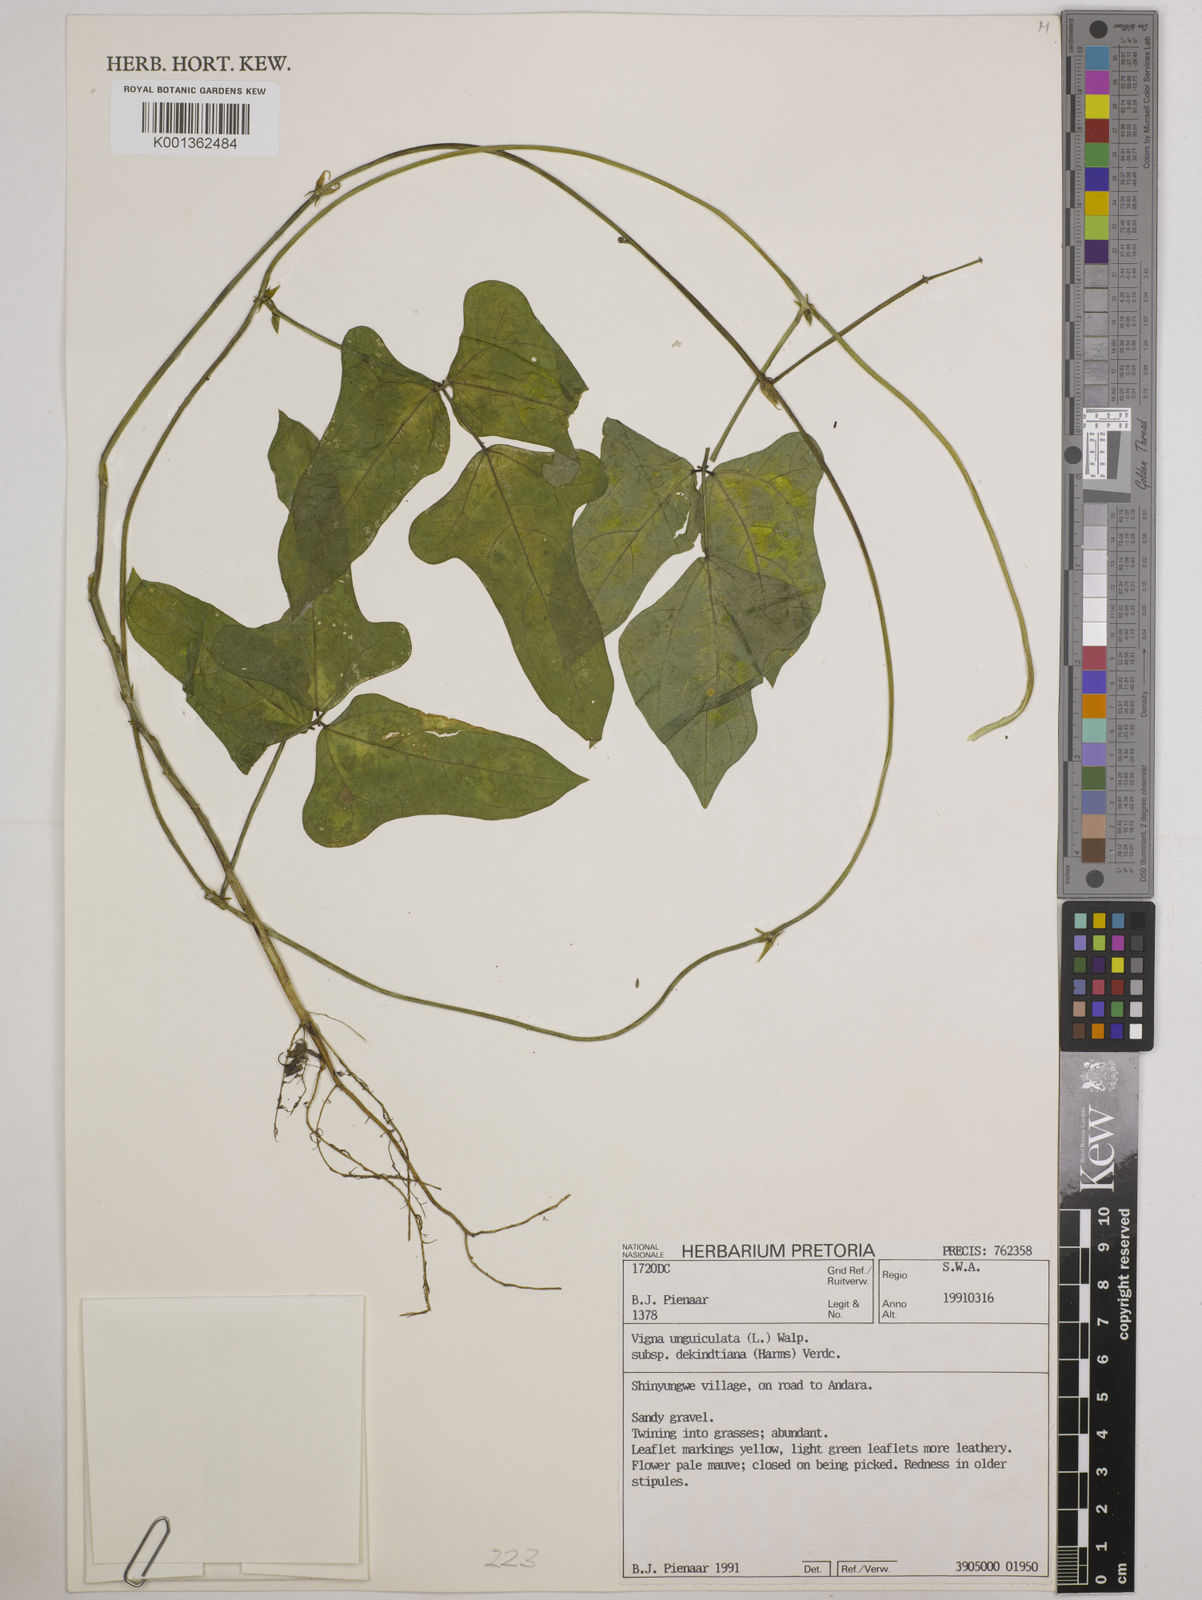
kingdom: Plantae
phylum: Tracheophyta
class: Magnoliopsida
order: Fabales
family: Fabaceae
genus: Vigna
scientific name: Vigna
